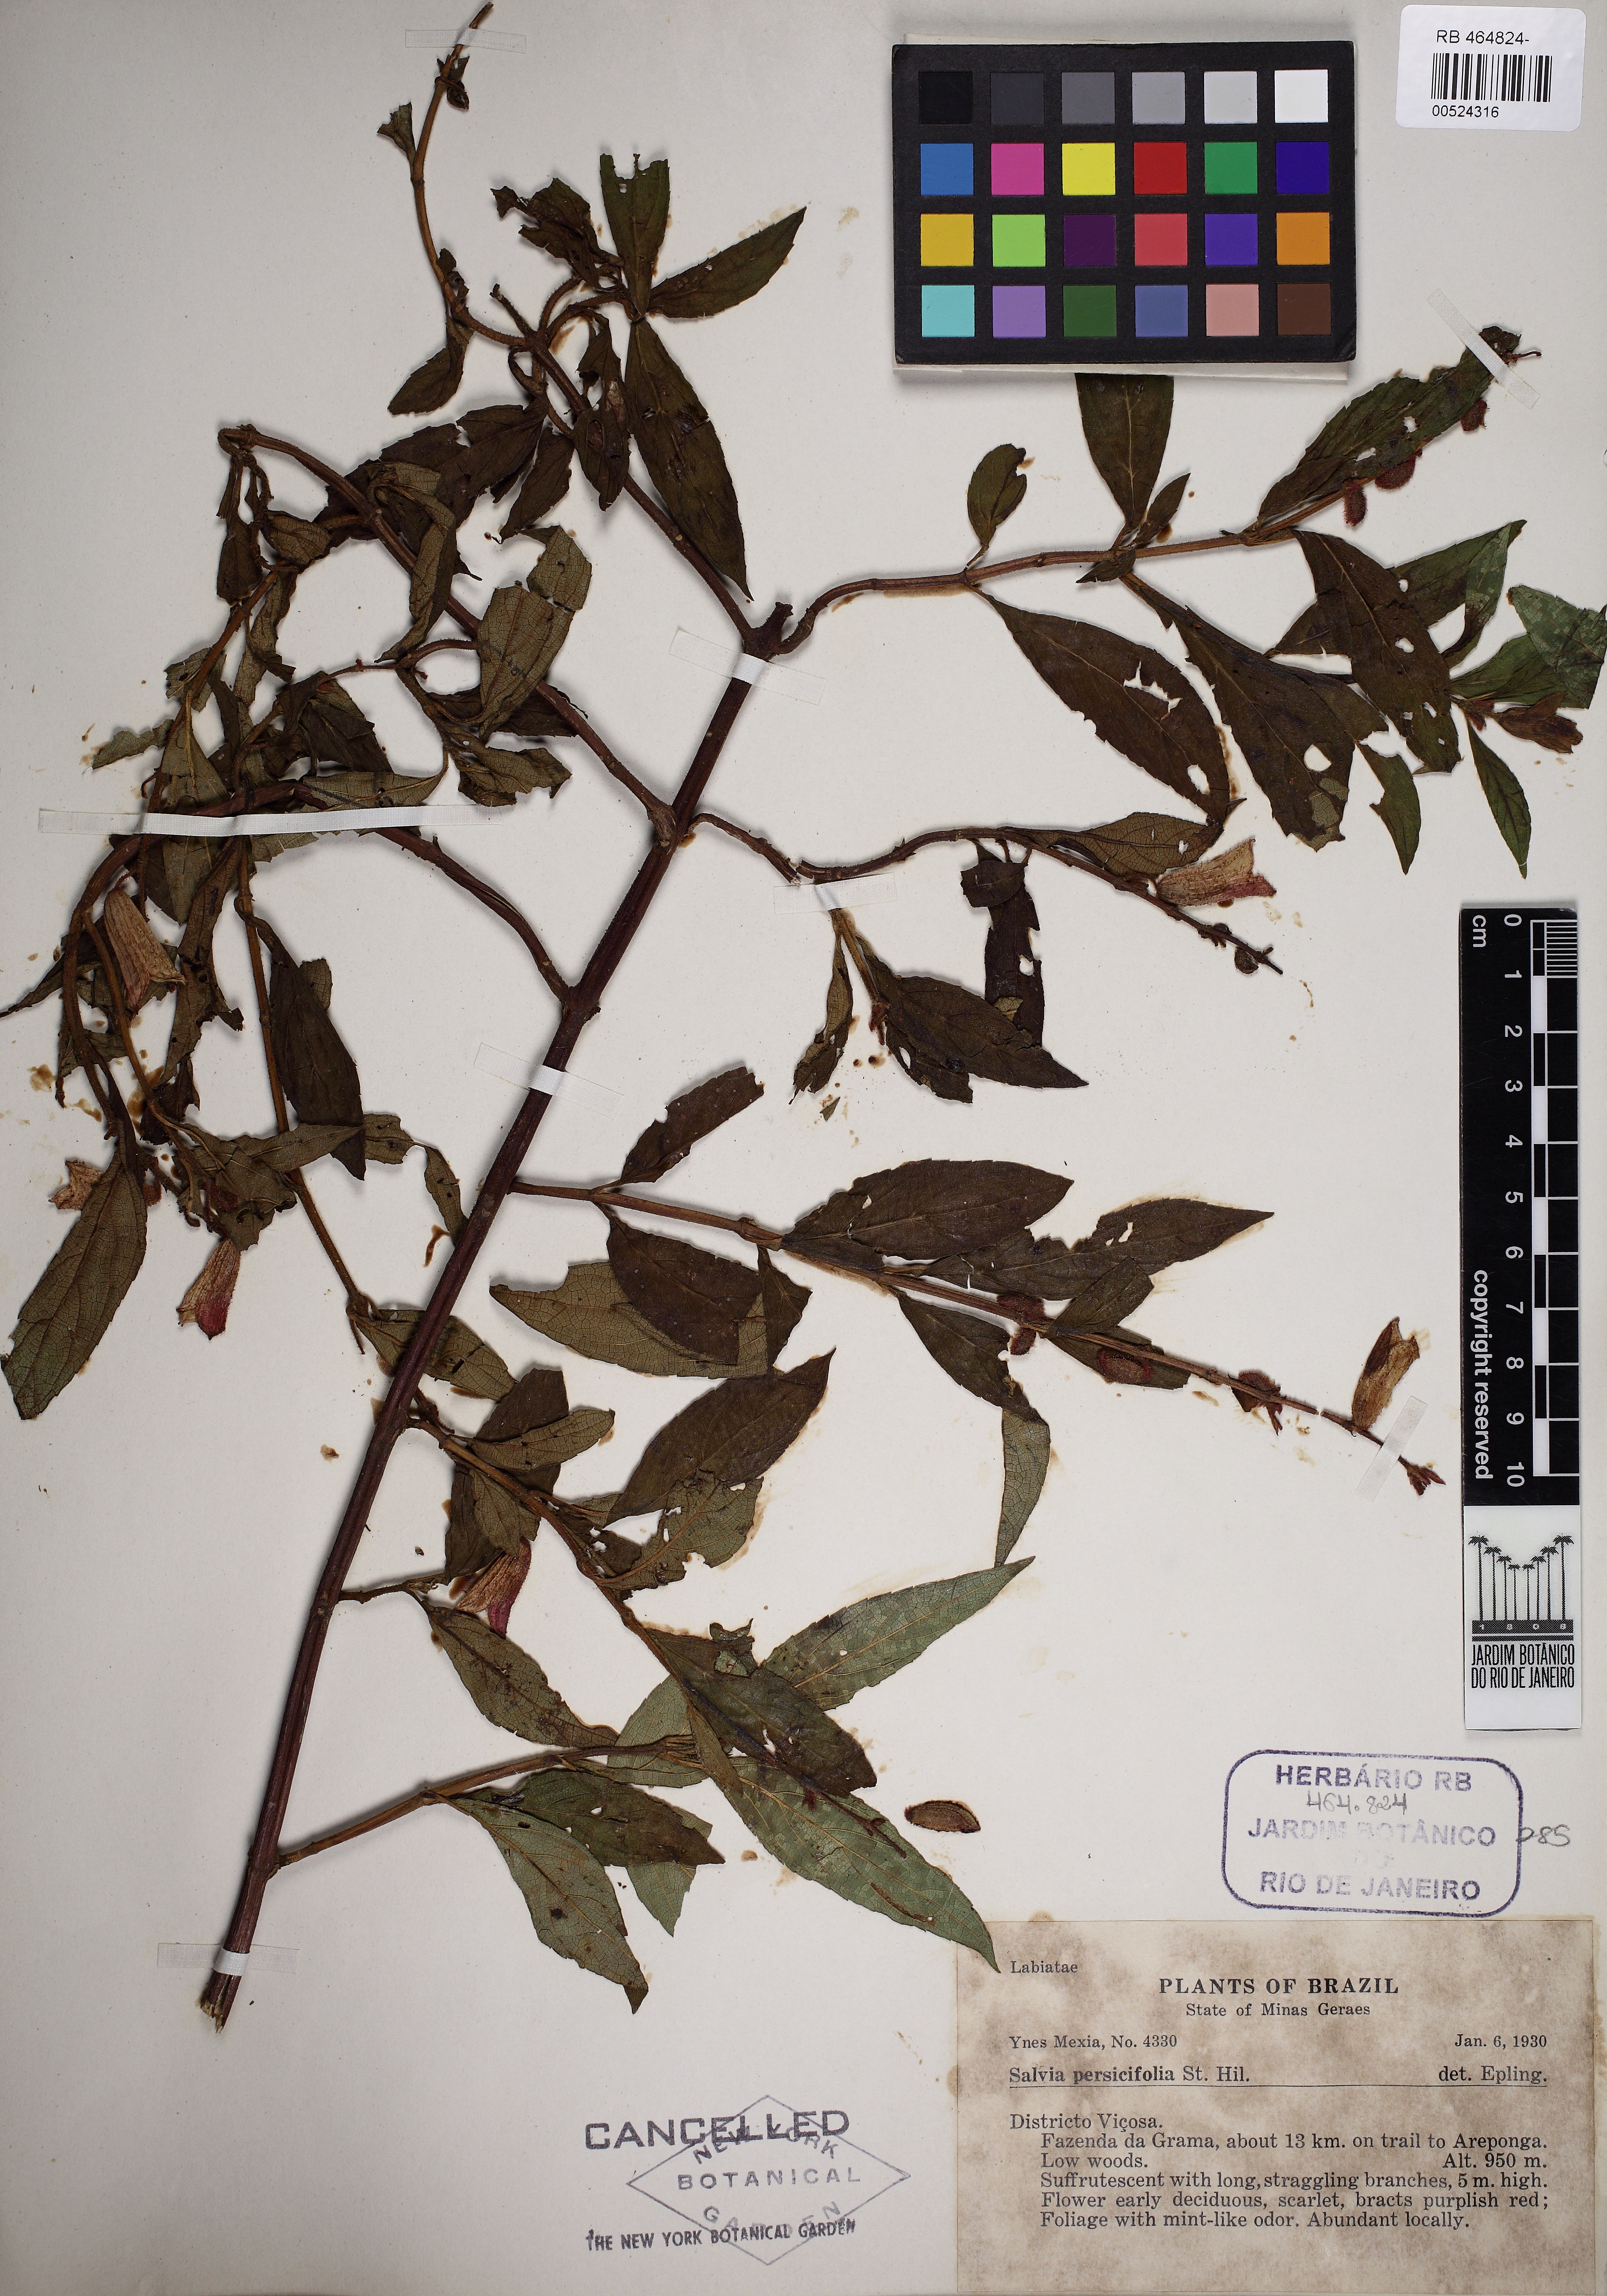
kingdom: Plantae
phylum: Tracheophyta
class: Magnoliopsida
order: Lamiales
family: Lamiaceae
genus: Salvia
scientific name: Salvia persicifolia
